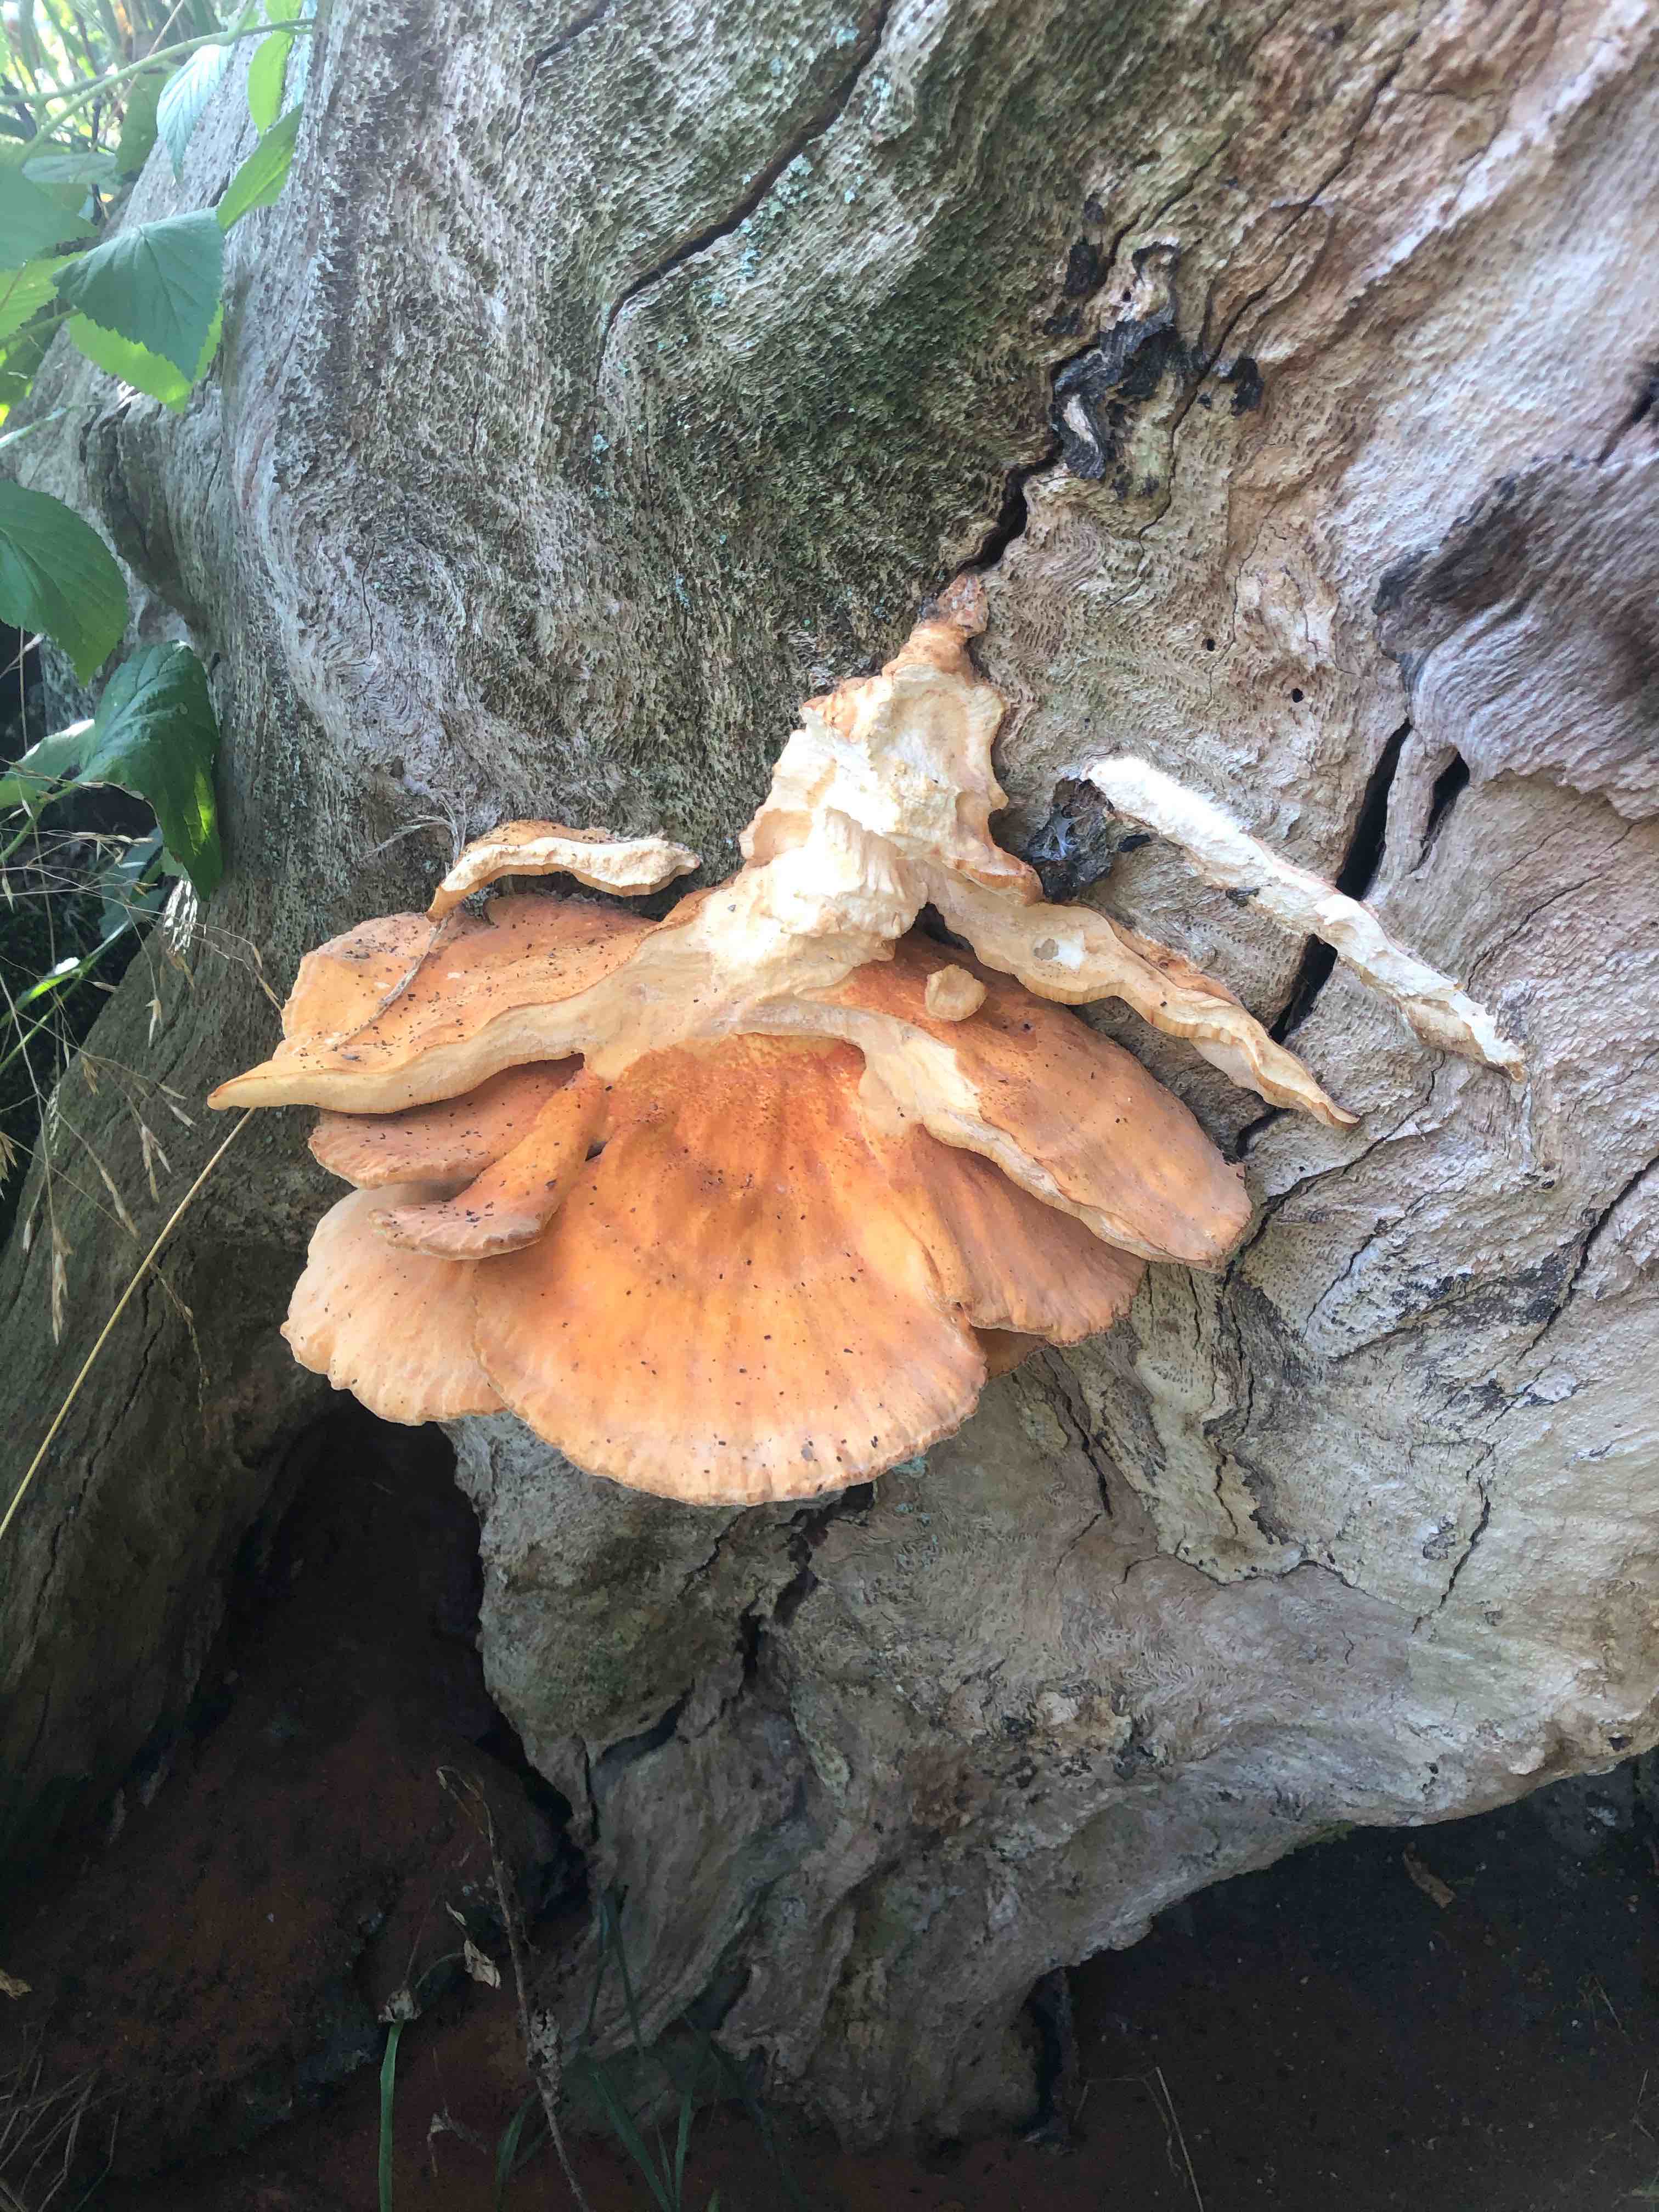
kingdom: Fungi
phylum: Basidiomycota
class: Agaricomycetes
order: Polyporales
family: Laetiporaceae
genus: Laetiporus
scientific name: Laetiporus sulphureus
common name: svovlporesvamp
